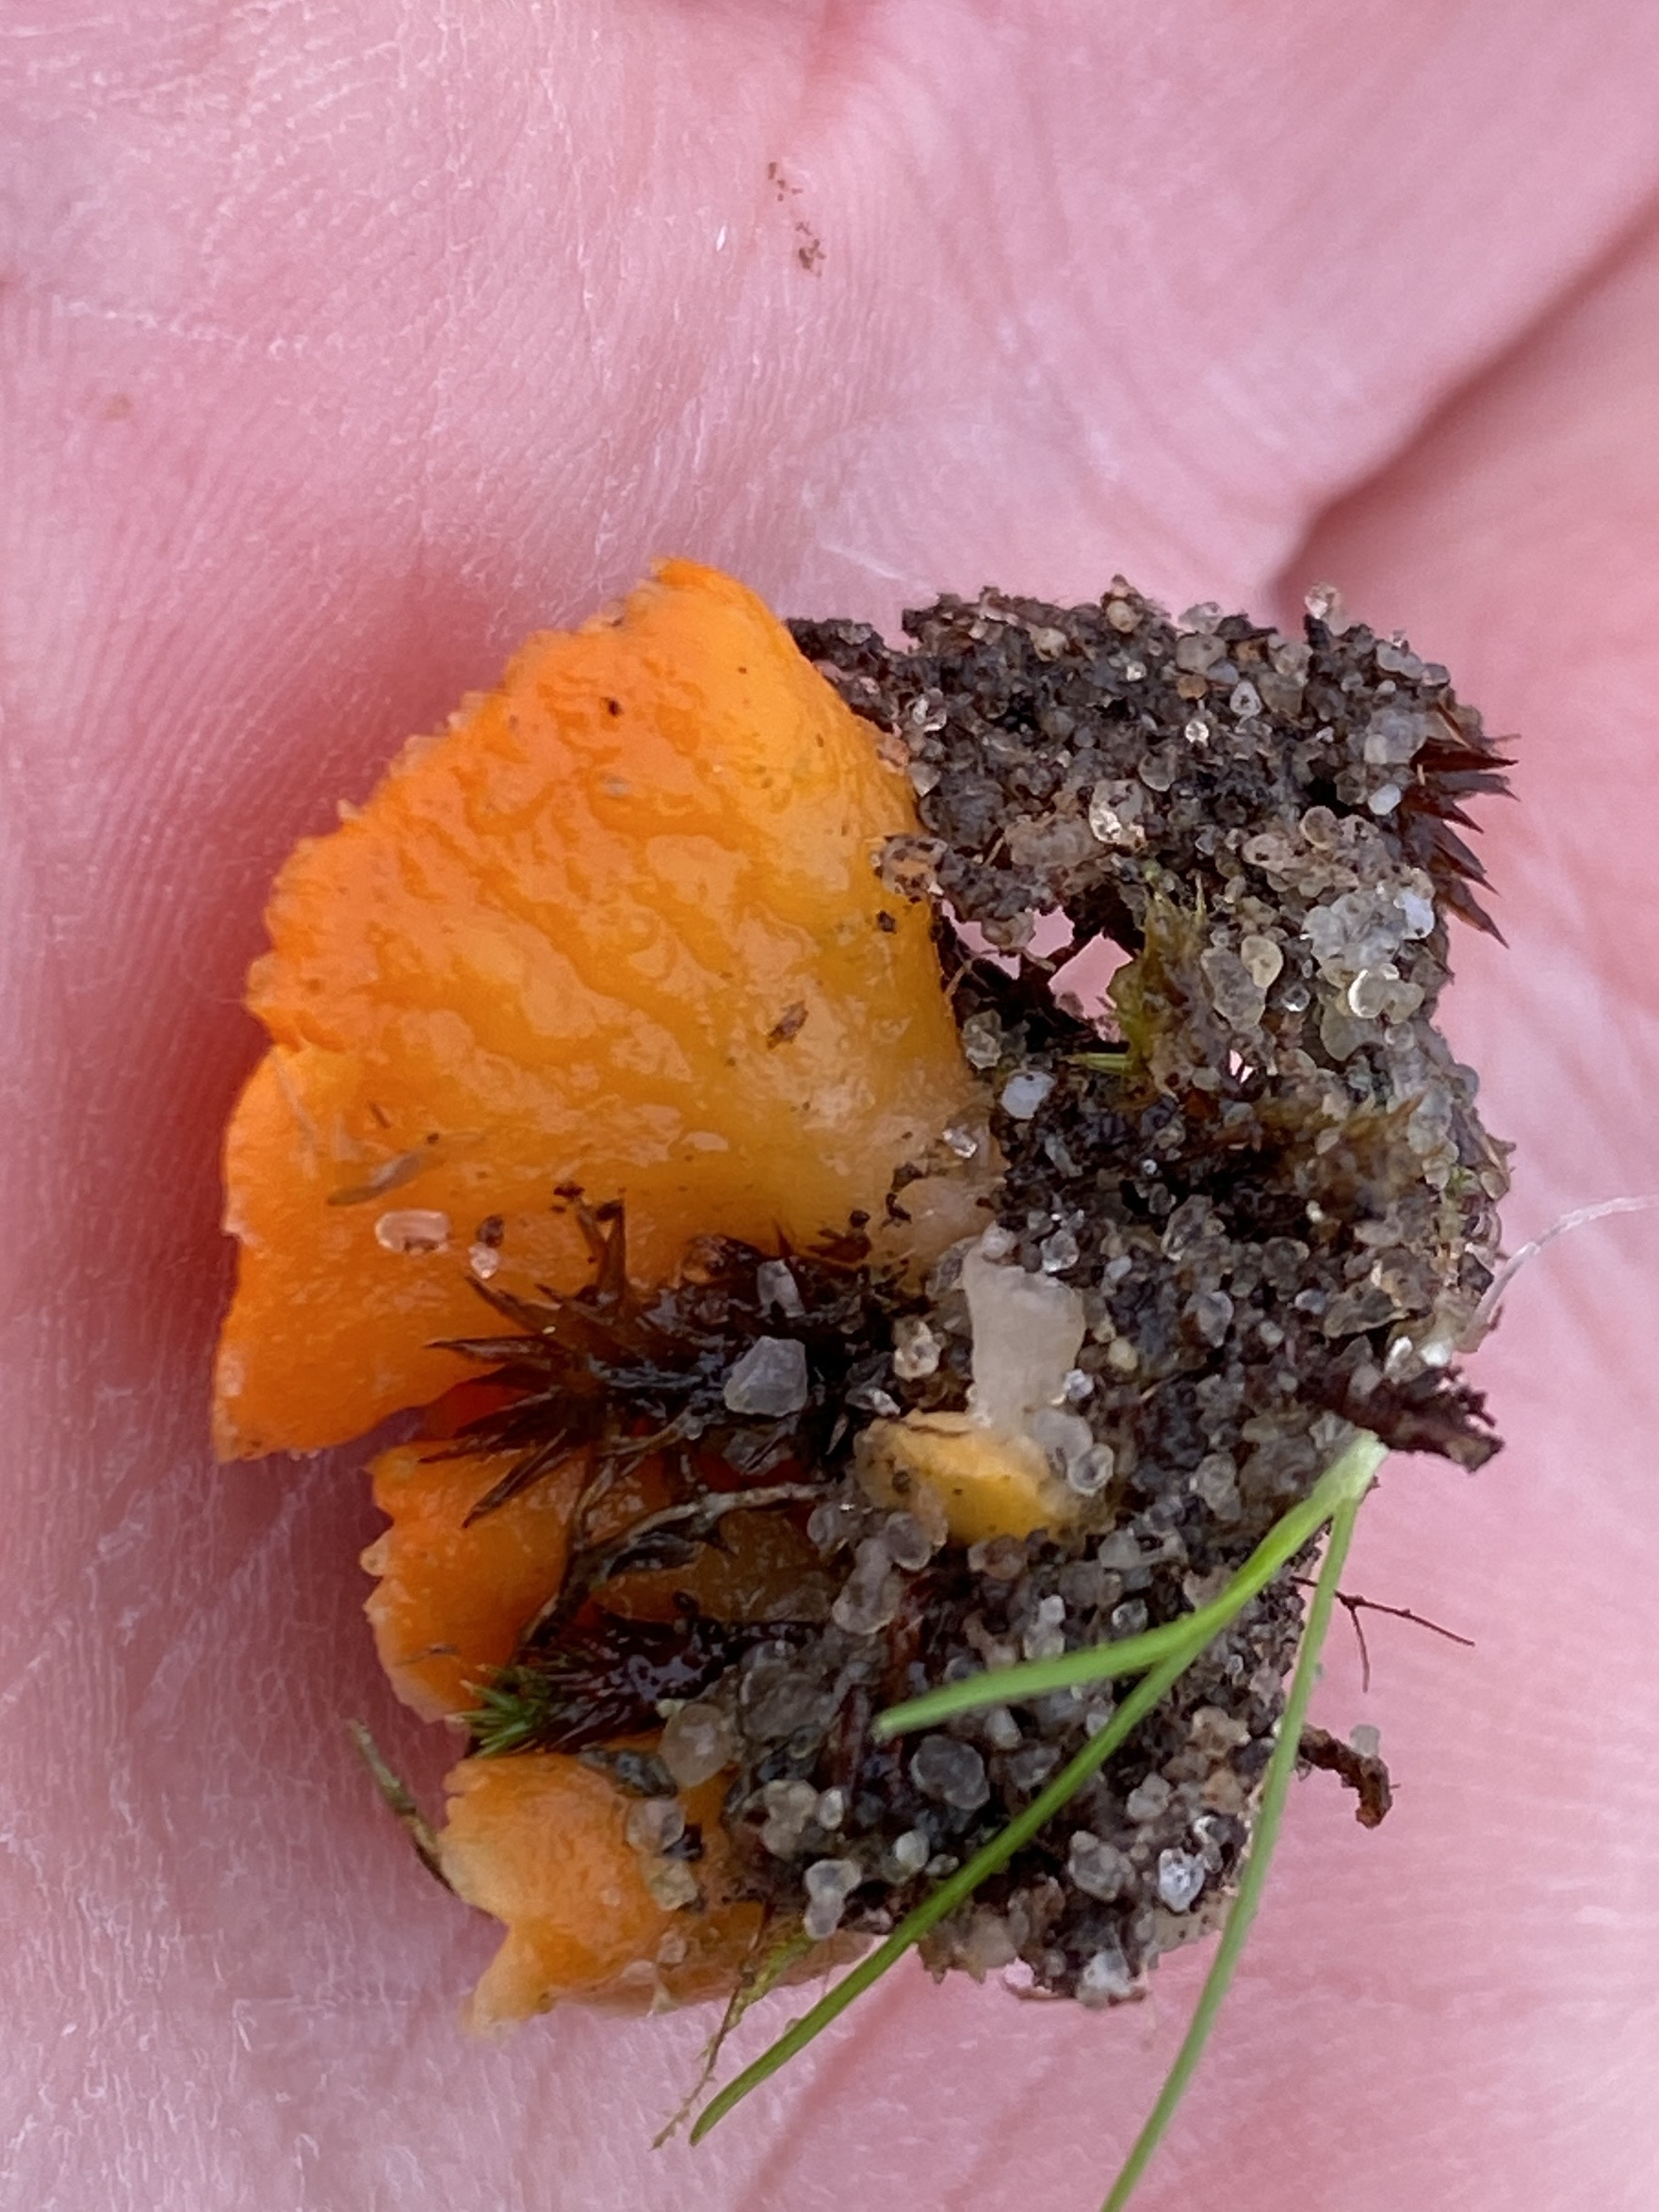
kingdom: Fungi
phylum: Ascomycota
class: Pezizomycetes
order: Pezizales
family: Pyronemataceae
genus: Neottiella
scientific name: Neottiella
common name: mosbæger
